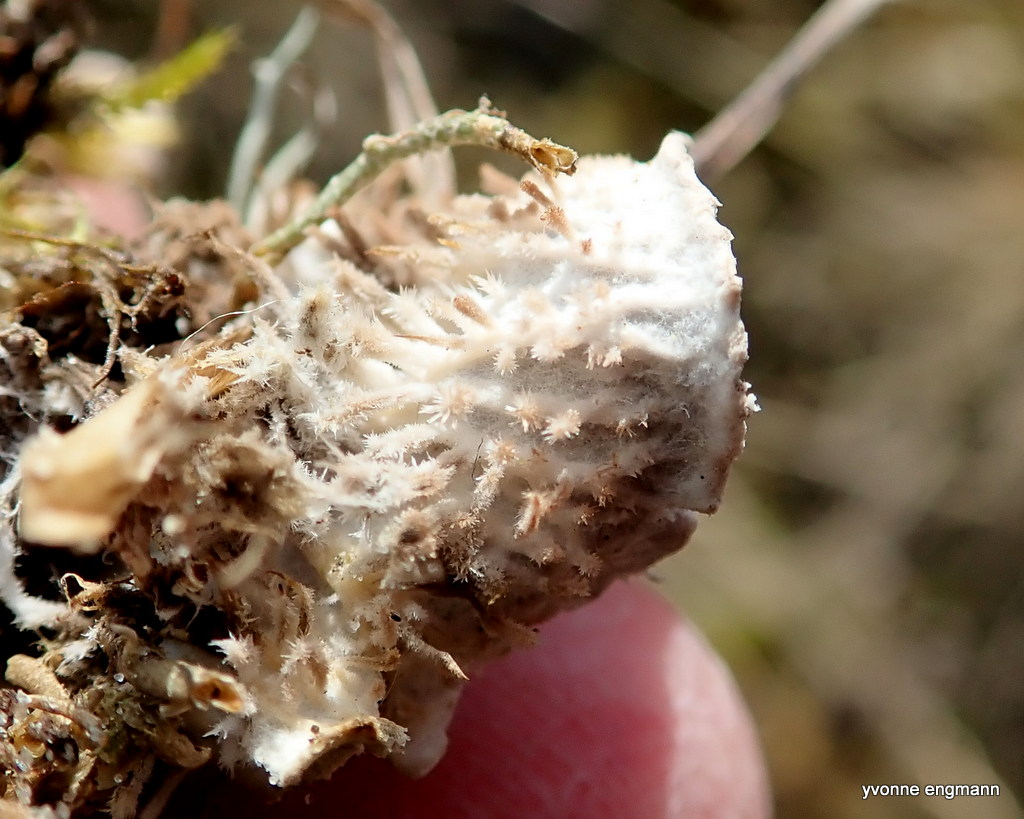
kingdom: Fungi
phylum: Ascomycota
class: Lecanoromycetes
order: Peltigerales
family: Peltigeraceae
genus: Peltigera
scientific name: Peltigera canina
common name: hunde-skjoldlav
